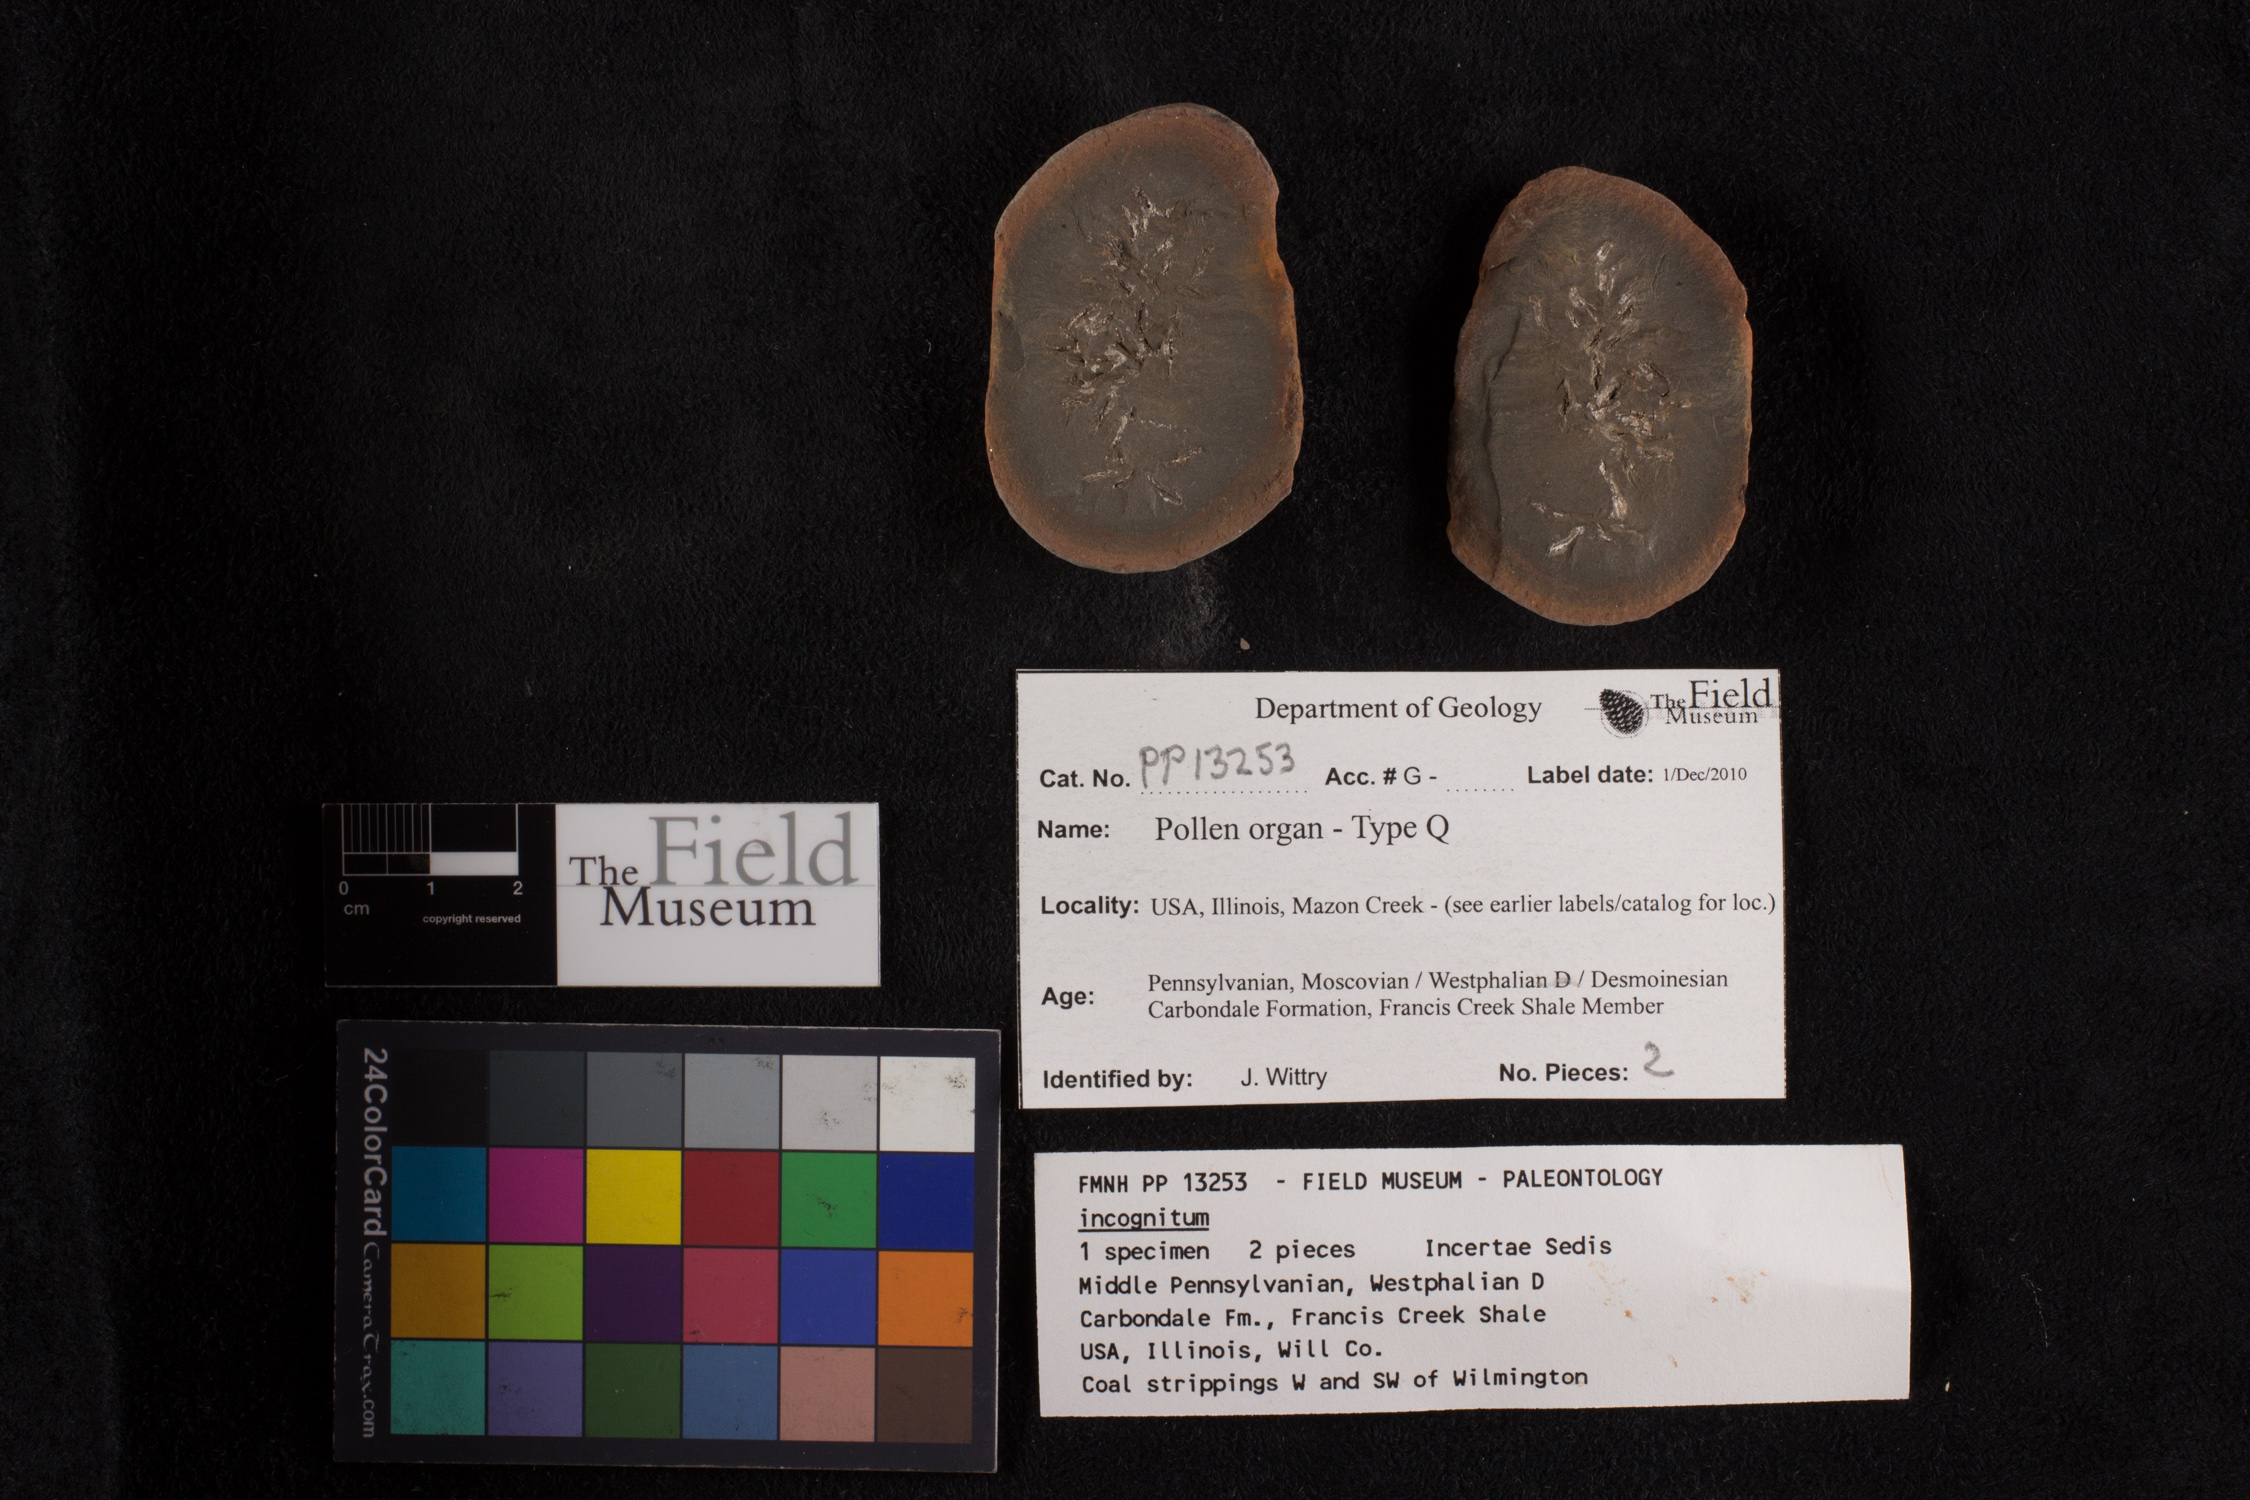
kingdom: Plantae
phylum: Tracheophyta
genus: Aulacotheca
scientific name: Aulacotheca
